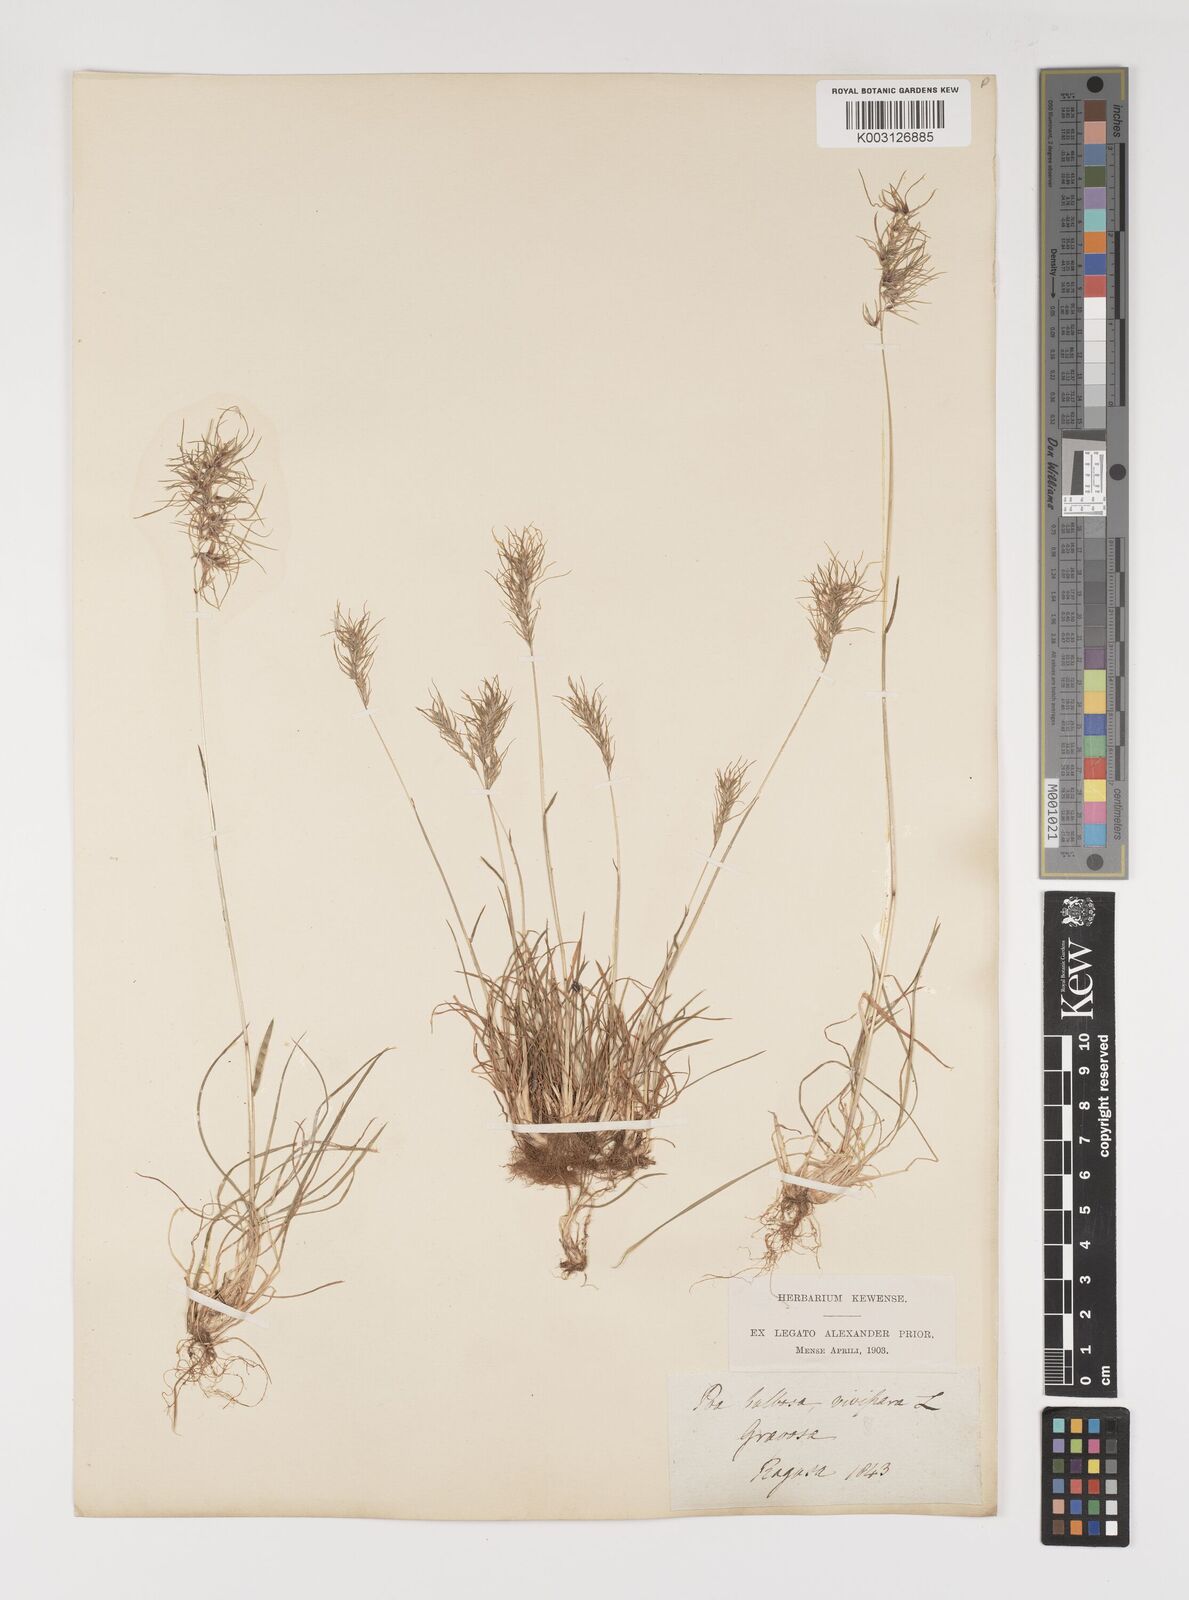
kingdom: Plantae
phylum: Tracheophyta
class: Liliopsida
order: Poales
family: Poaceae
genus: Poa
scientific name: Poa bulbosa
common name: Bulbous bluegrass
